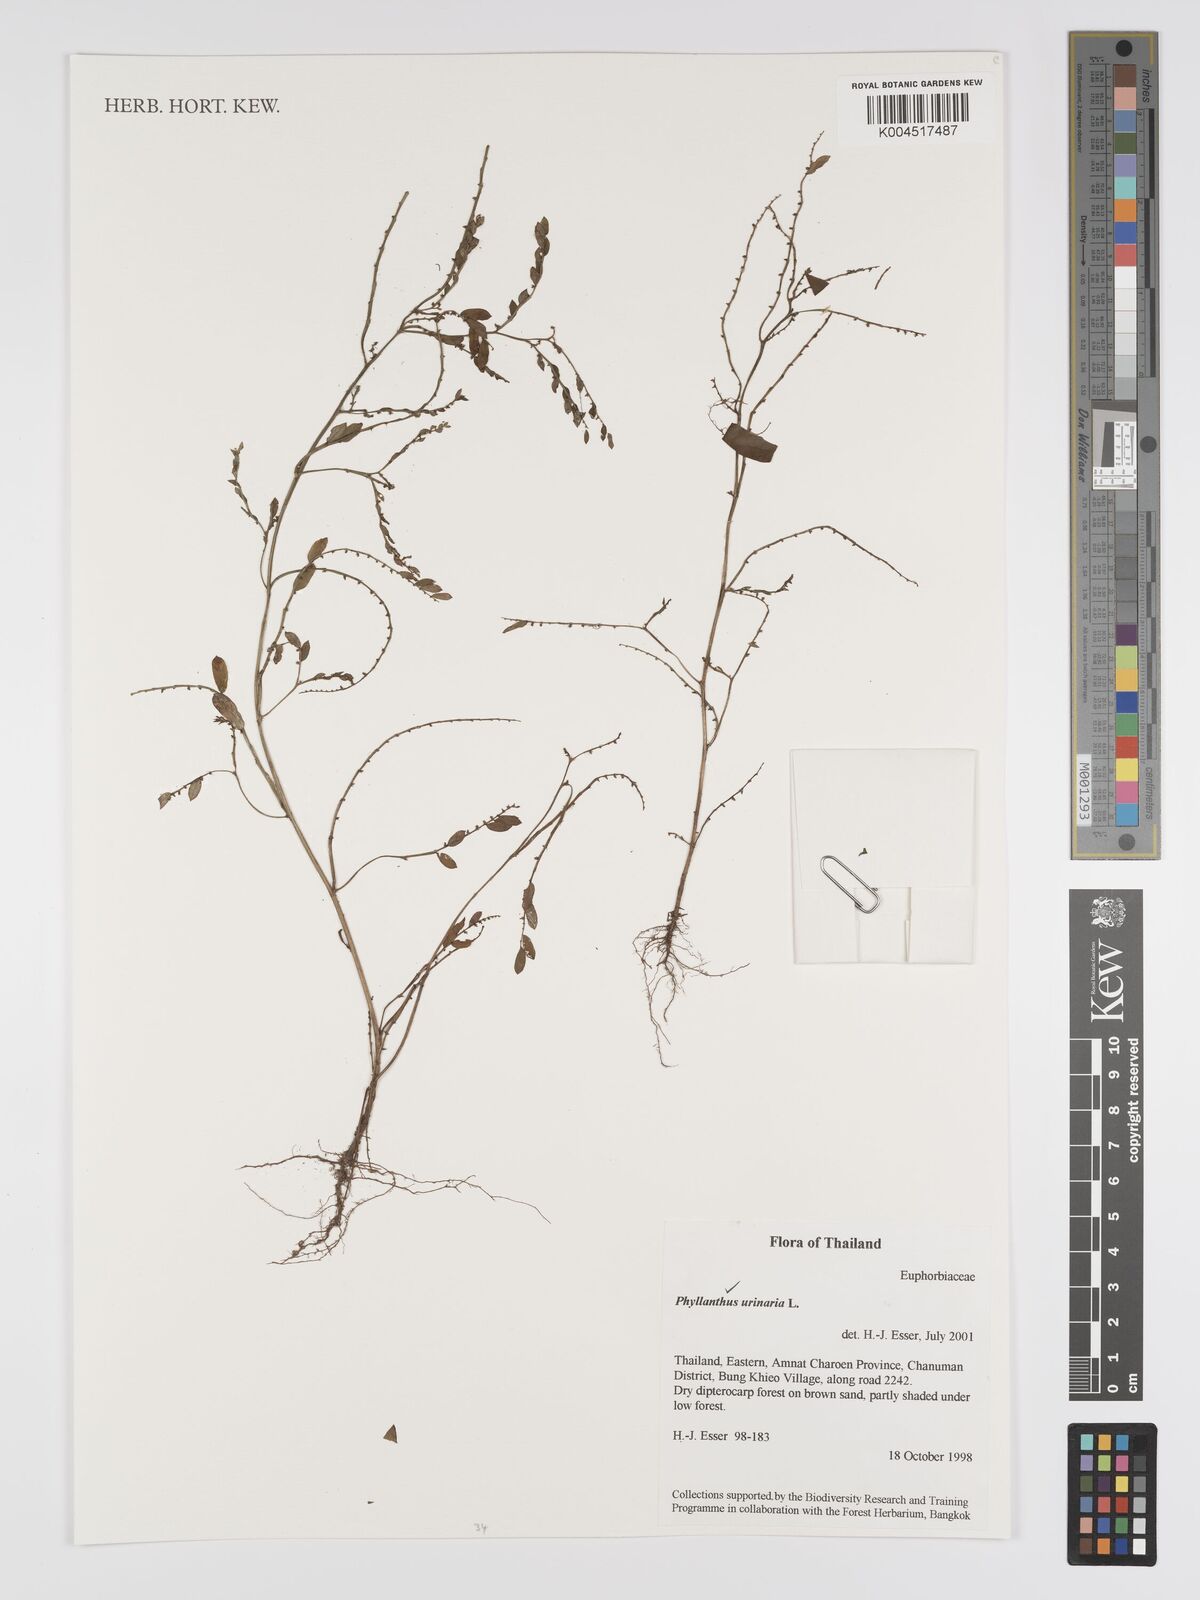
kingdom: Plantae
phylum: Tracheophyta
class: Magnoliopsida
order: Malpighiales
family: Phyllanthaceae
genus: Phyllanthus
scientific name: Phyllanthus urinaria
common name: Chamber bitter
